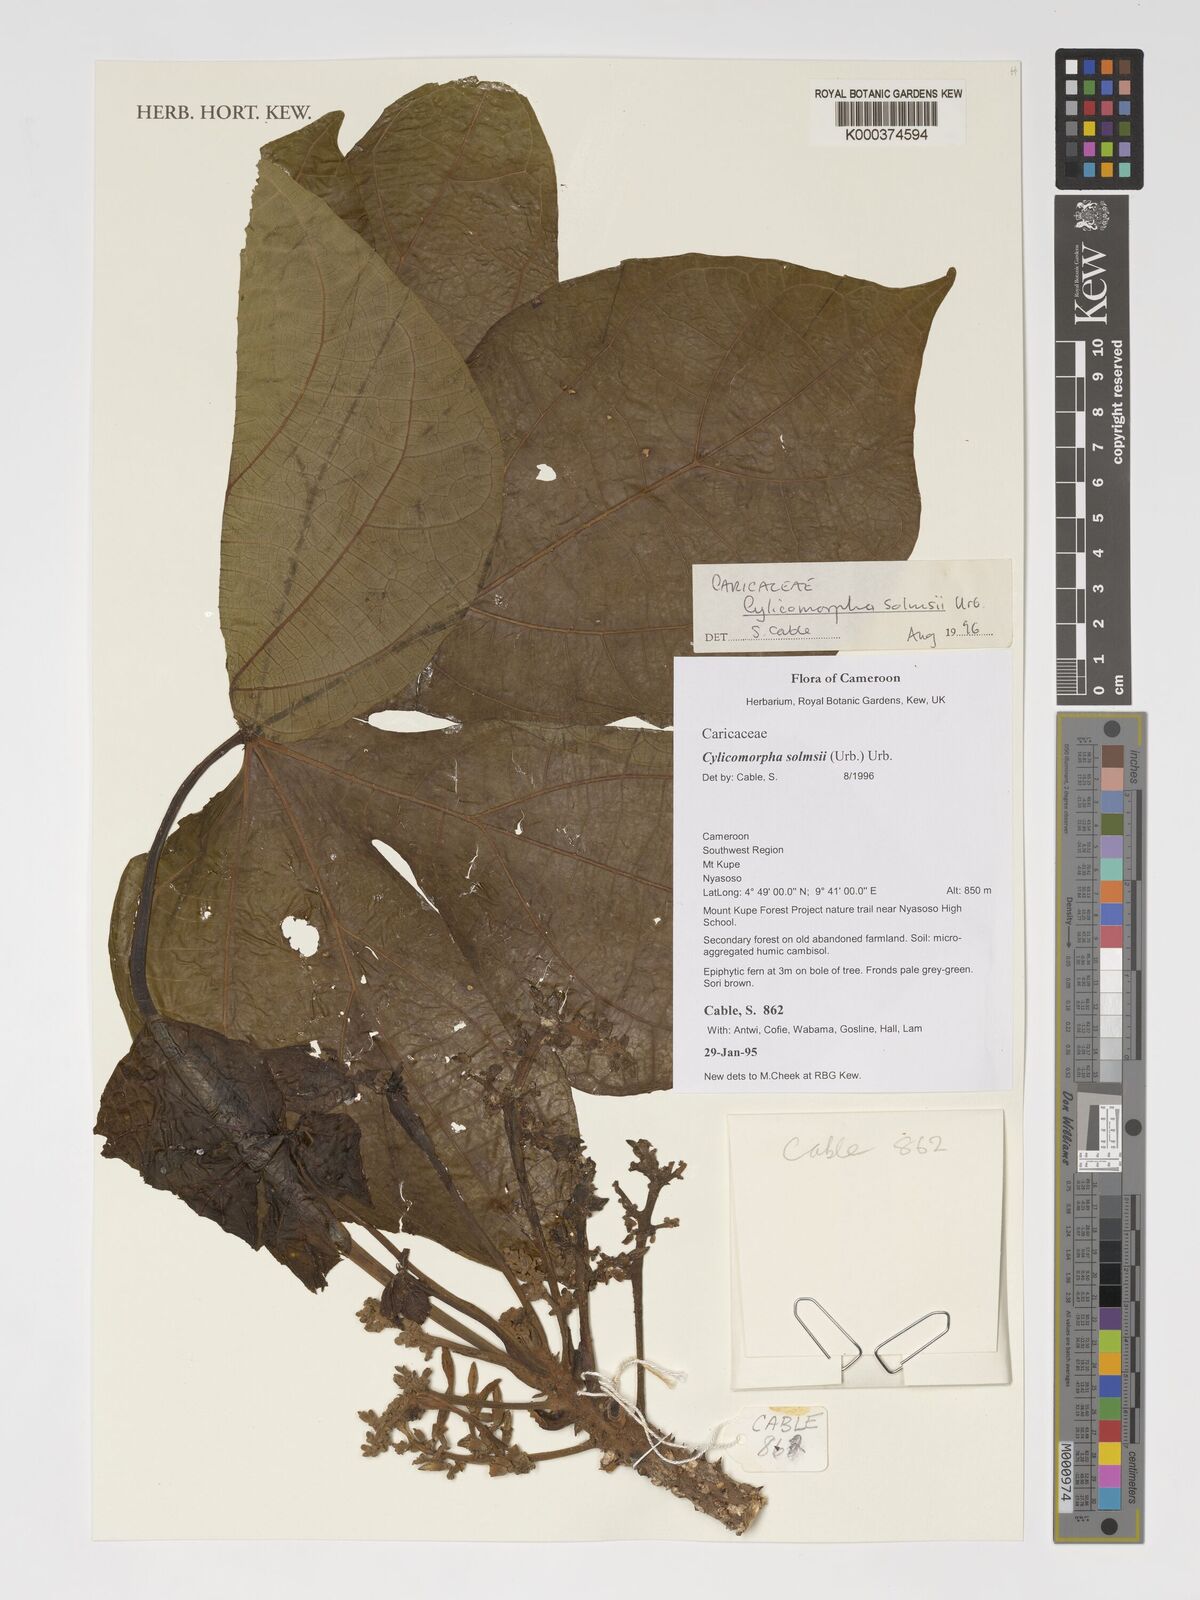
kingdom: Plantae
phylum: Tracheophyta
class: Magnoliopsida
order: Brassicales
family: Caricaceae
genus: Cylicomorpha
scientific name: Cylicomorpha solmsii
